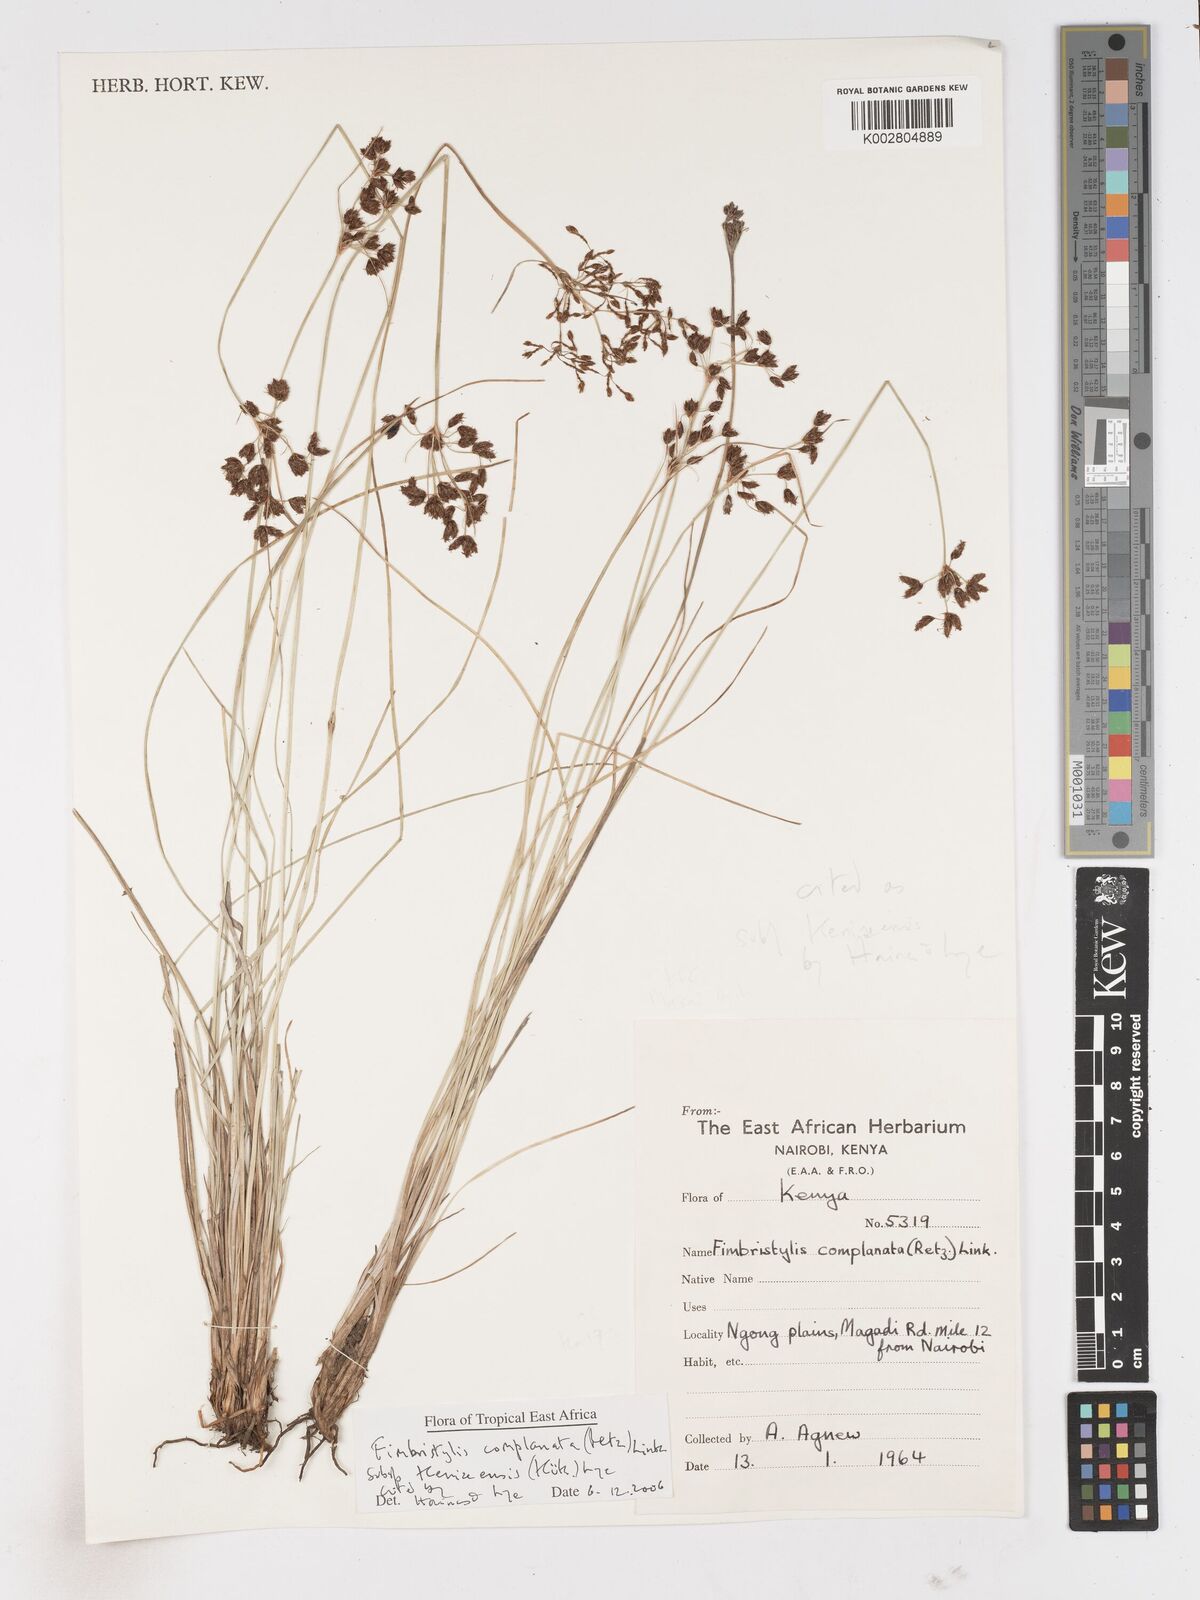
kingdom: Plantae
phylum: Tracheophyta
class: Liliopsida
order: Poales
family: Cyperaceae
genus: Fimbristylis
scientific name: Fimbristylis complanata
